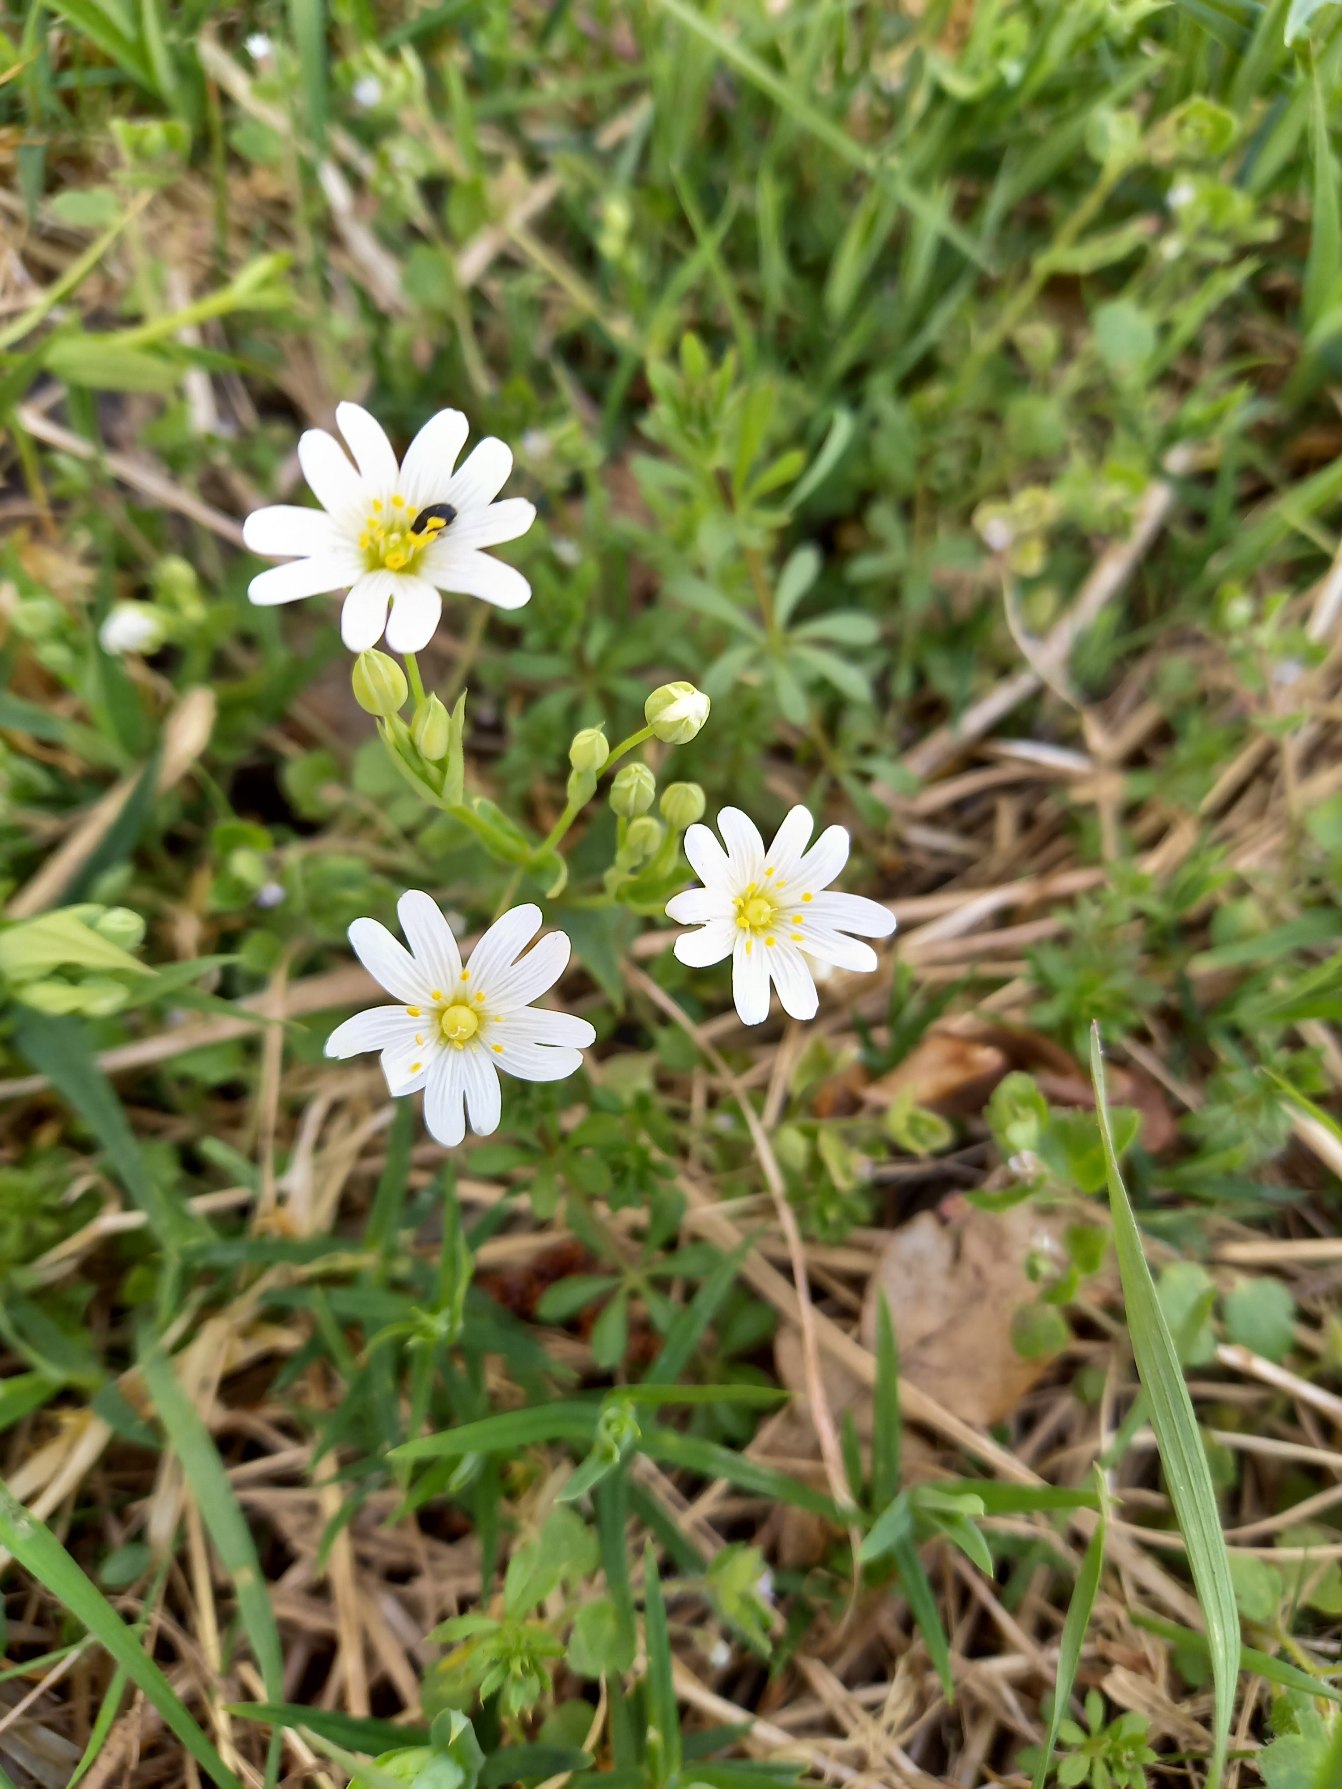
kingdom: Plantae
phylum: Tracheophyta
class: Magnoliopsida
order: Caryophyllales
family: Caryophyllaceae
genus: Rabelera
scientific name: Rabelera holostea
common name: Stor fladstjerne
